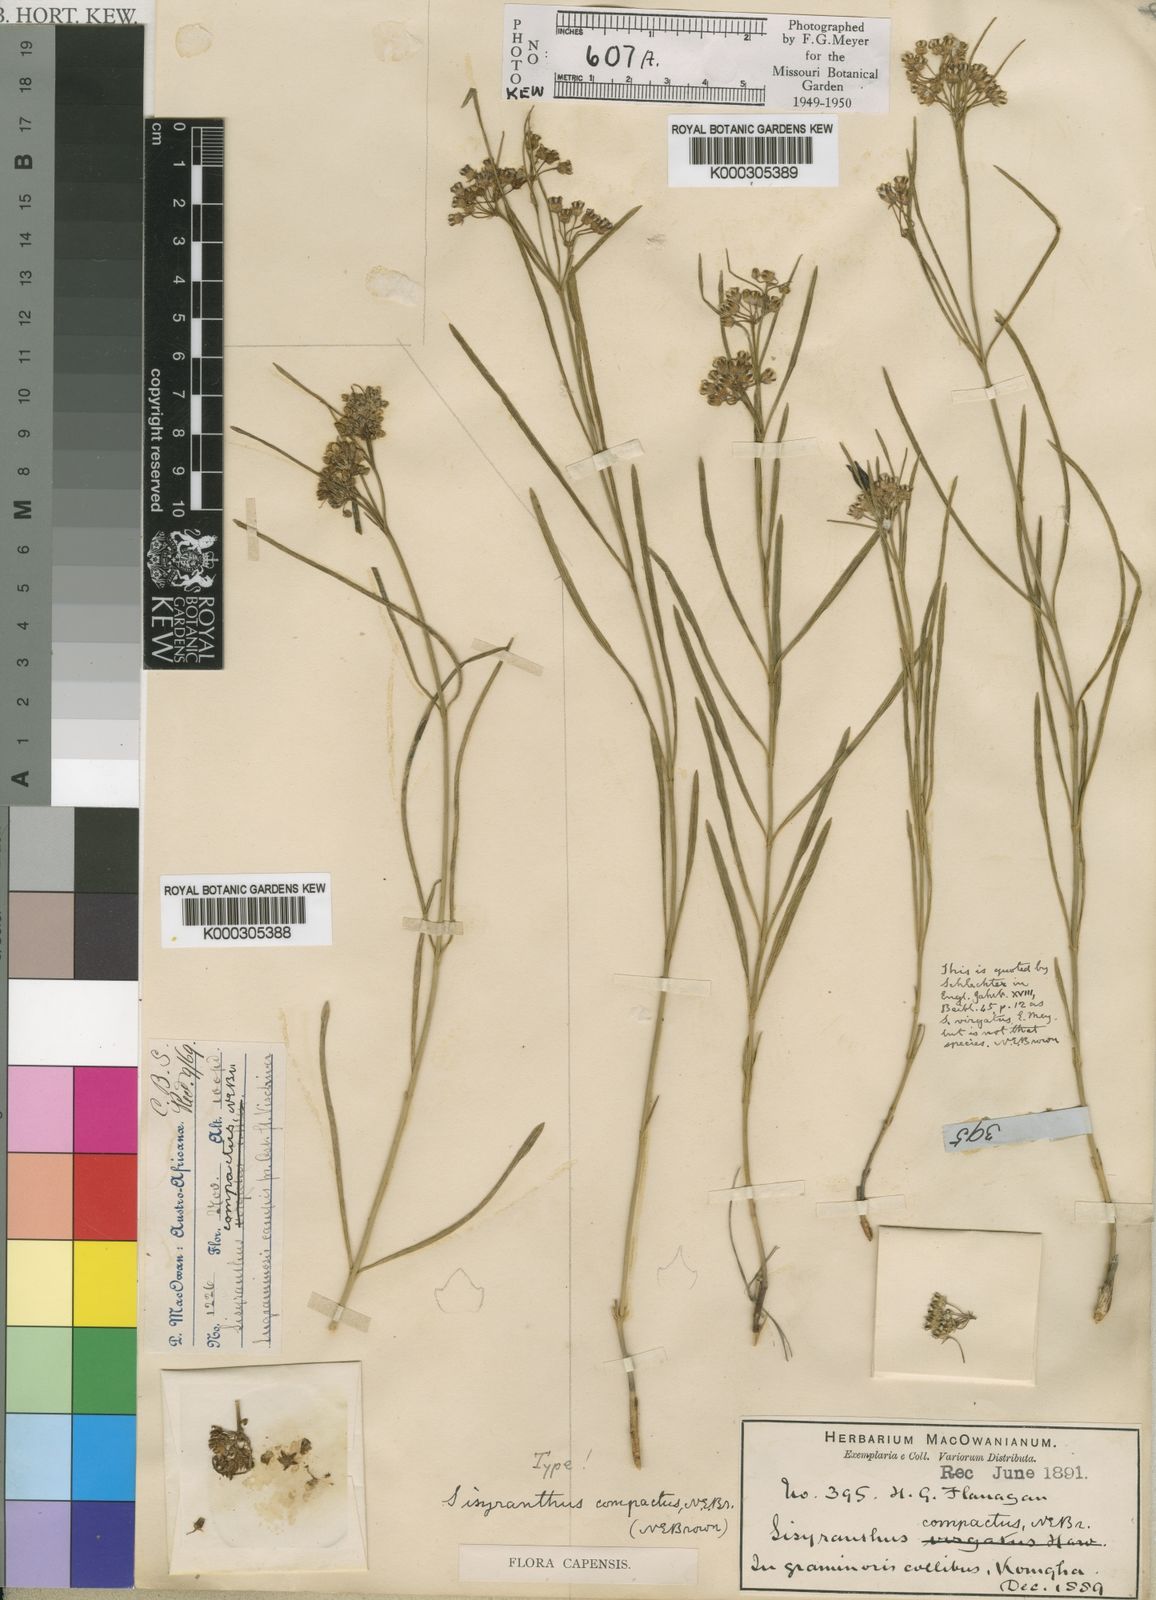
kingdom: Plantae
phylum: Tracheophyta
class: Magnoliopsida
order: Gentianales
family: Apocynaceae
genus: Sisyranthus
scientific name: Sisyranthus compactus
